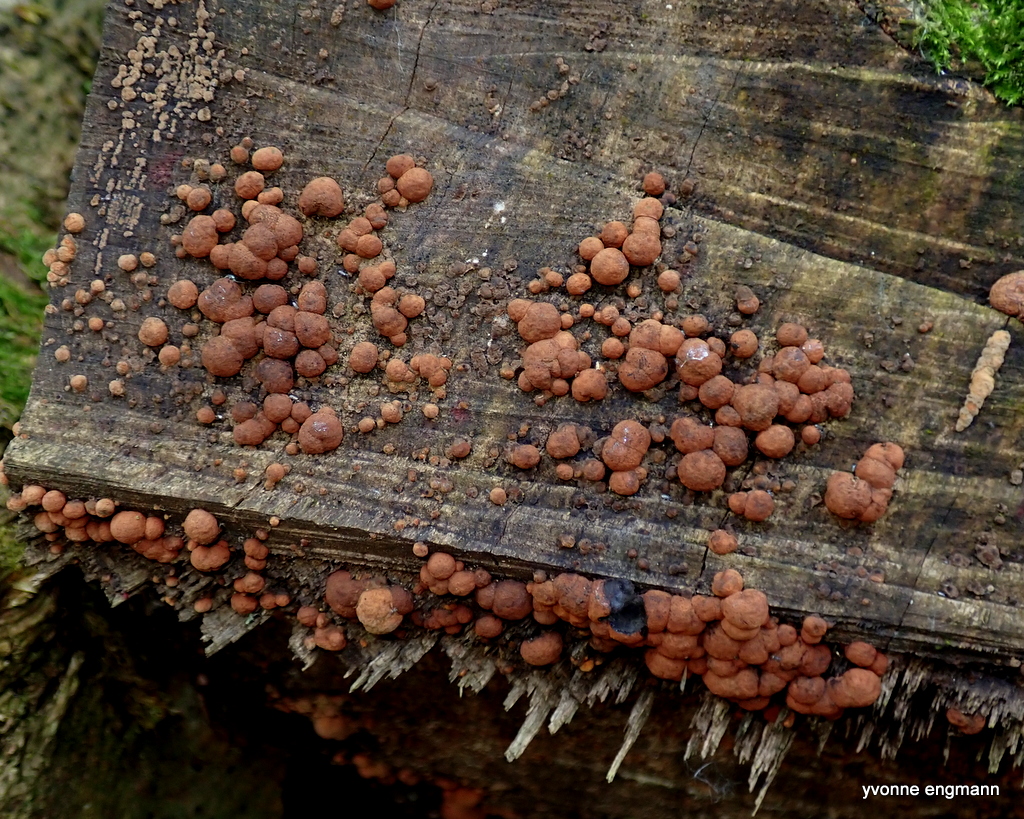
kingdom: Fungi
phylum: Ascomycota
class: Sordariomycetes
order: Xylariales
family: Hypoxylaceae
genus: Hypoxylon
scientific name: Hypoxylon fragiforme
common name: kuljordbær
